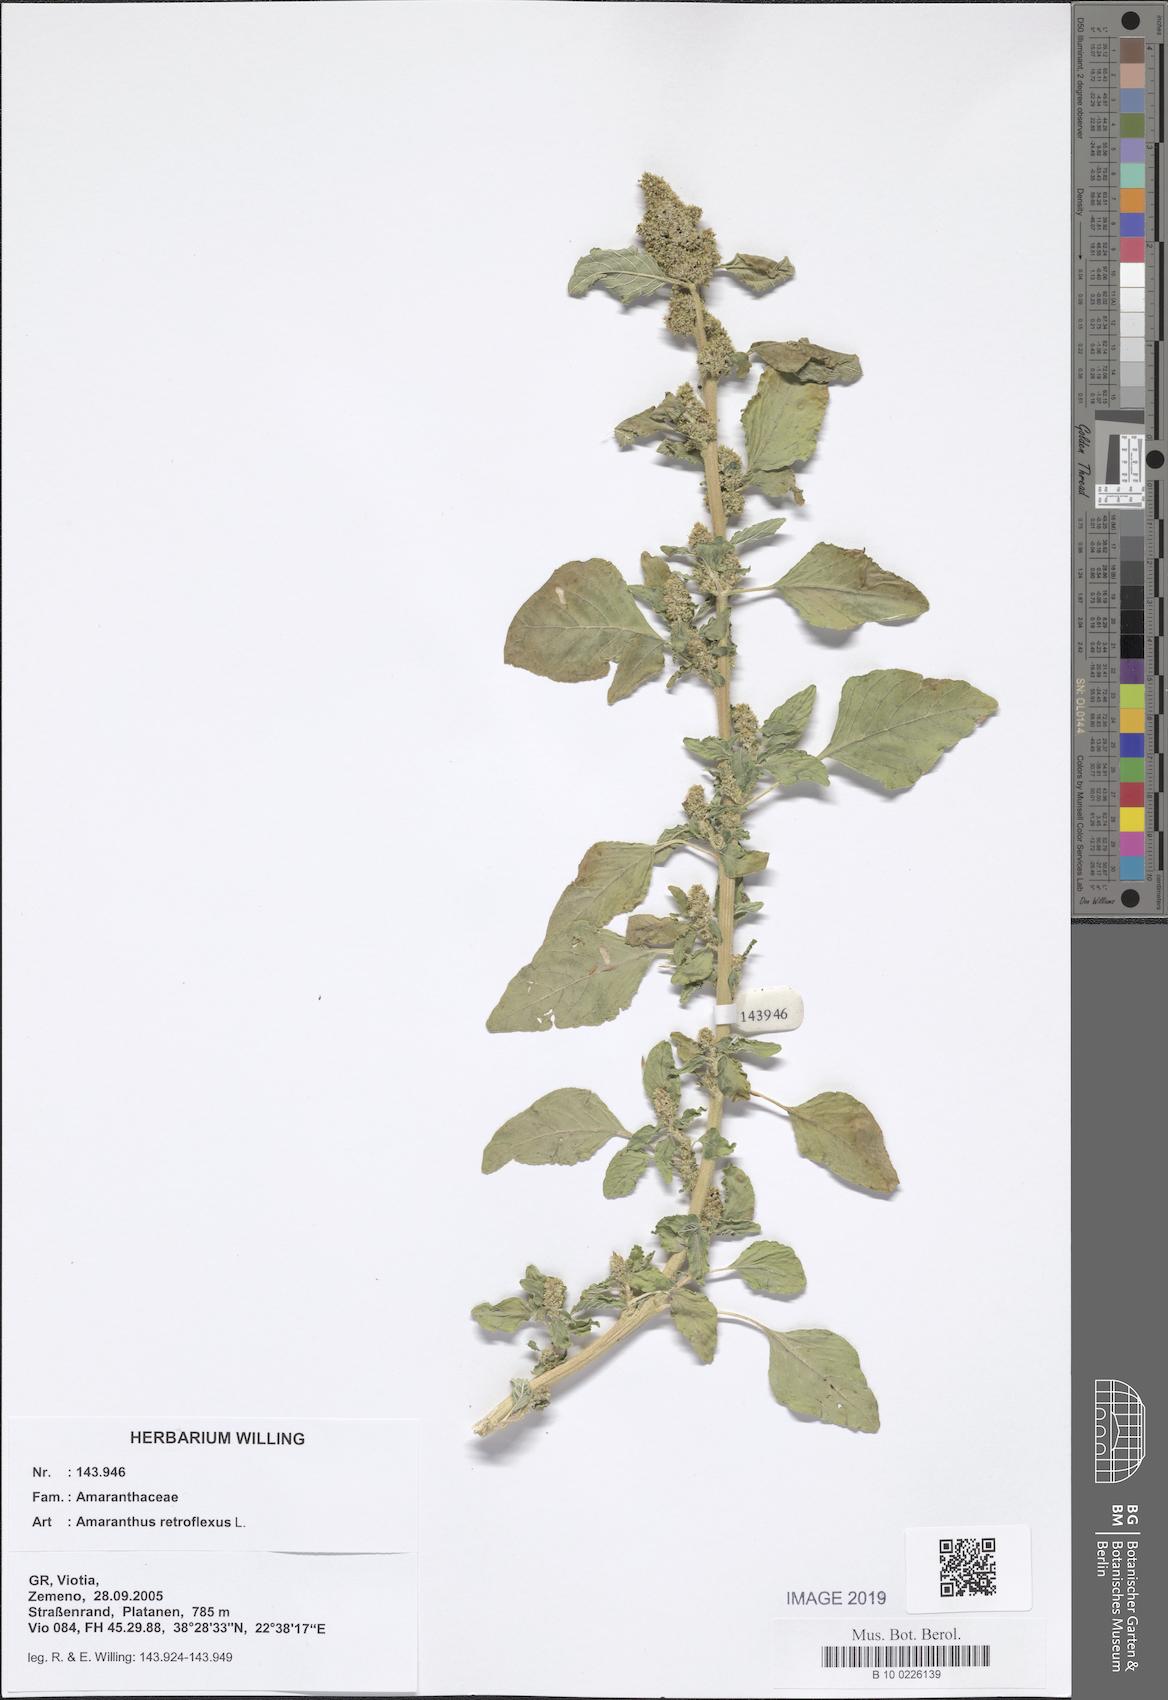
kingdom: Plantae
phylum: Tracheophyta
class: Magnoliopsida
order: Caryophyllales
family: Amaranthaceae
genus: Amaranthus
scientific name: Amaranthus retroflexus
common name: Redroot amaranth
